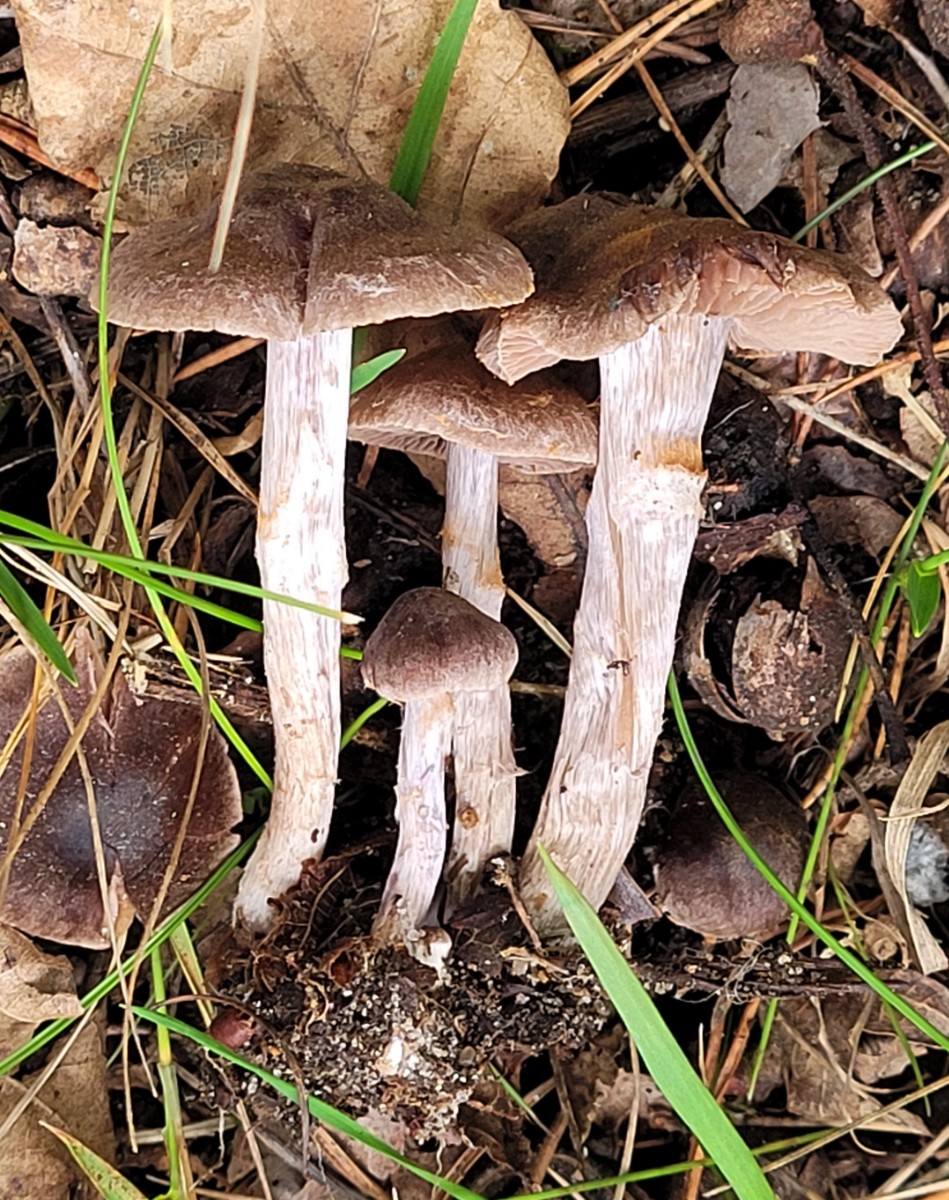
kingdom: Fungi
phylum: Basidiomycota
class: Agaricomycetes
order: Agaricales
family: Cortinariaceae
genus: Cortinarius
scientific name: Cortinarius falsosus
